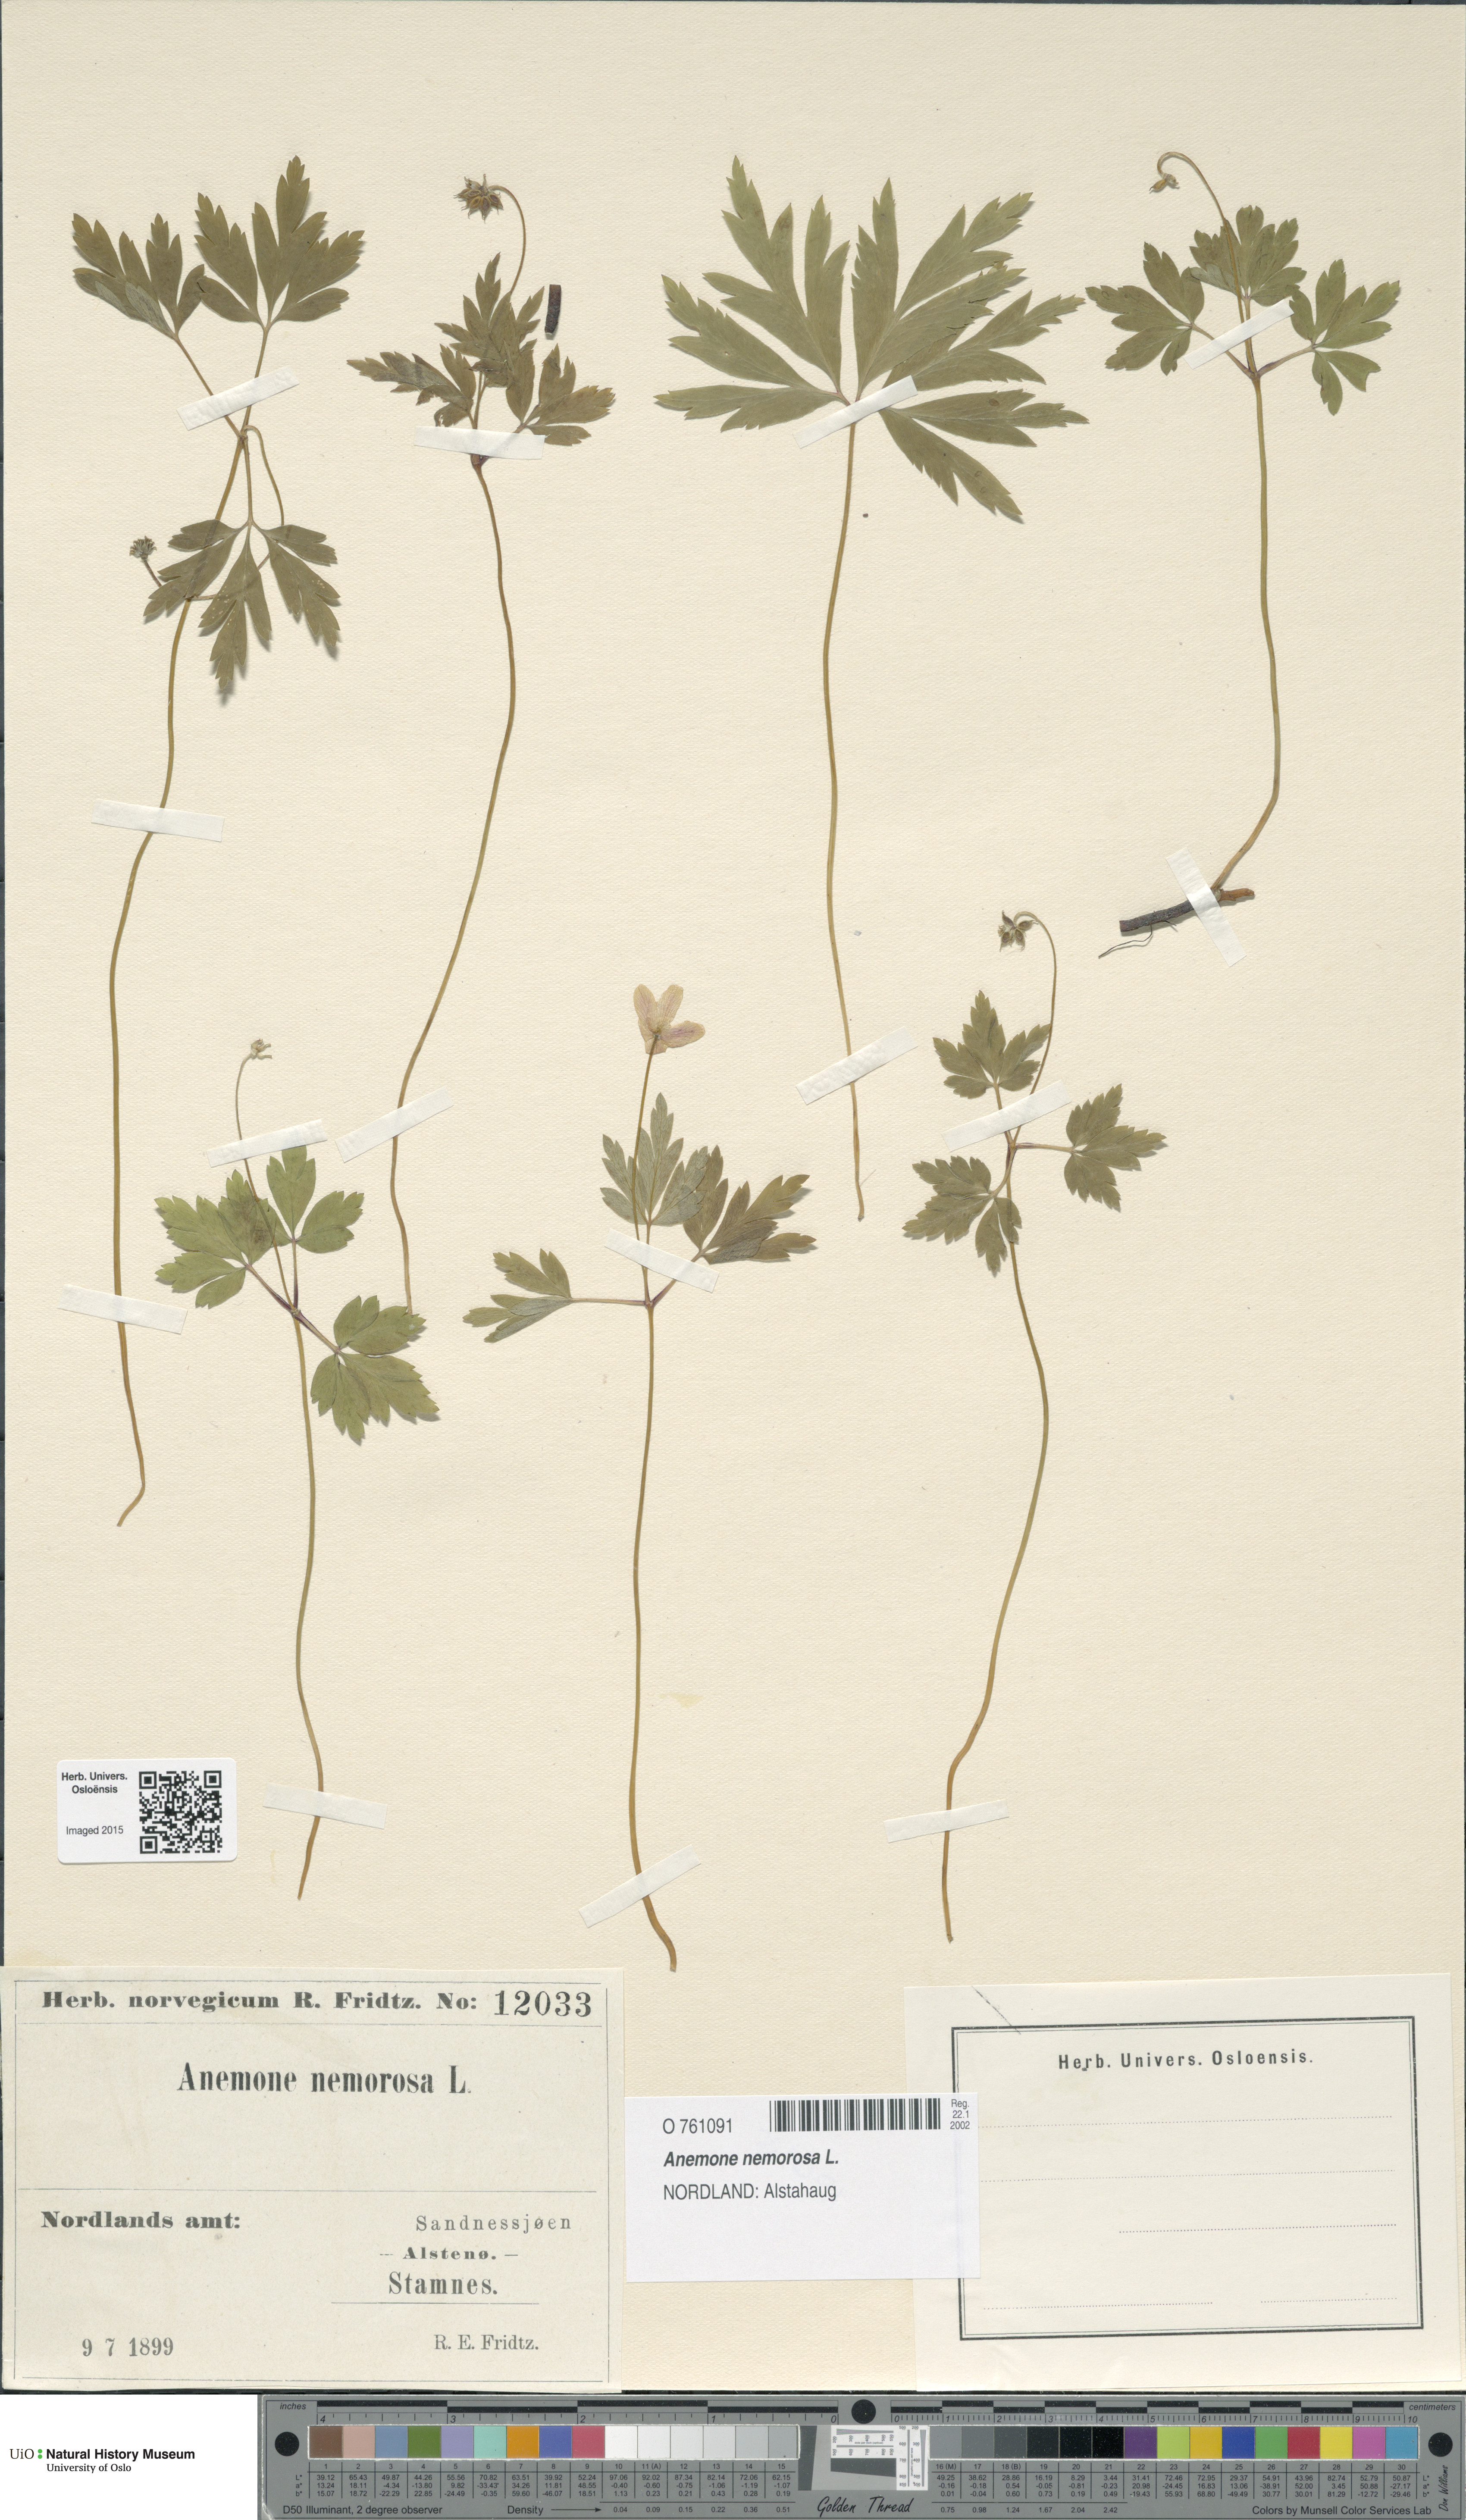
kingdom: Plantae
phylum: Tracheophyta
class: Magnoliopsida
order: Ranunculales
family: Ranunculaceae
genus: Anemone
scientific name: Anemone nemorosa
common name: Wood anemone
